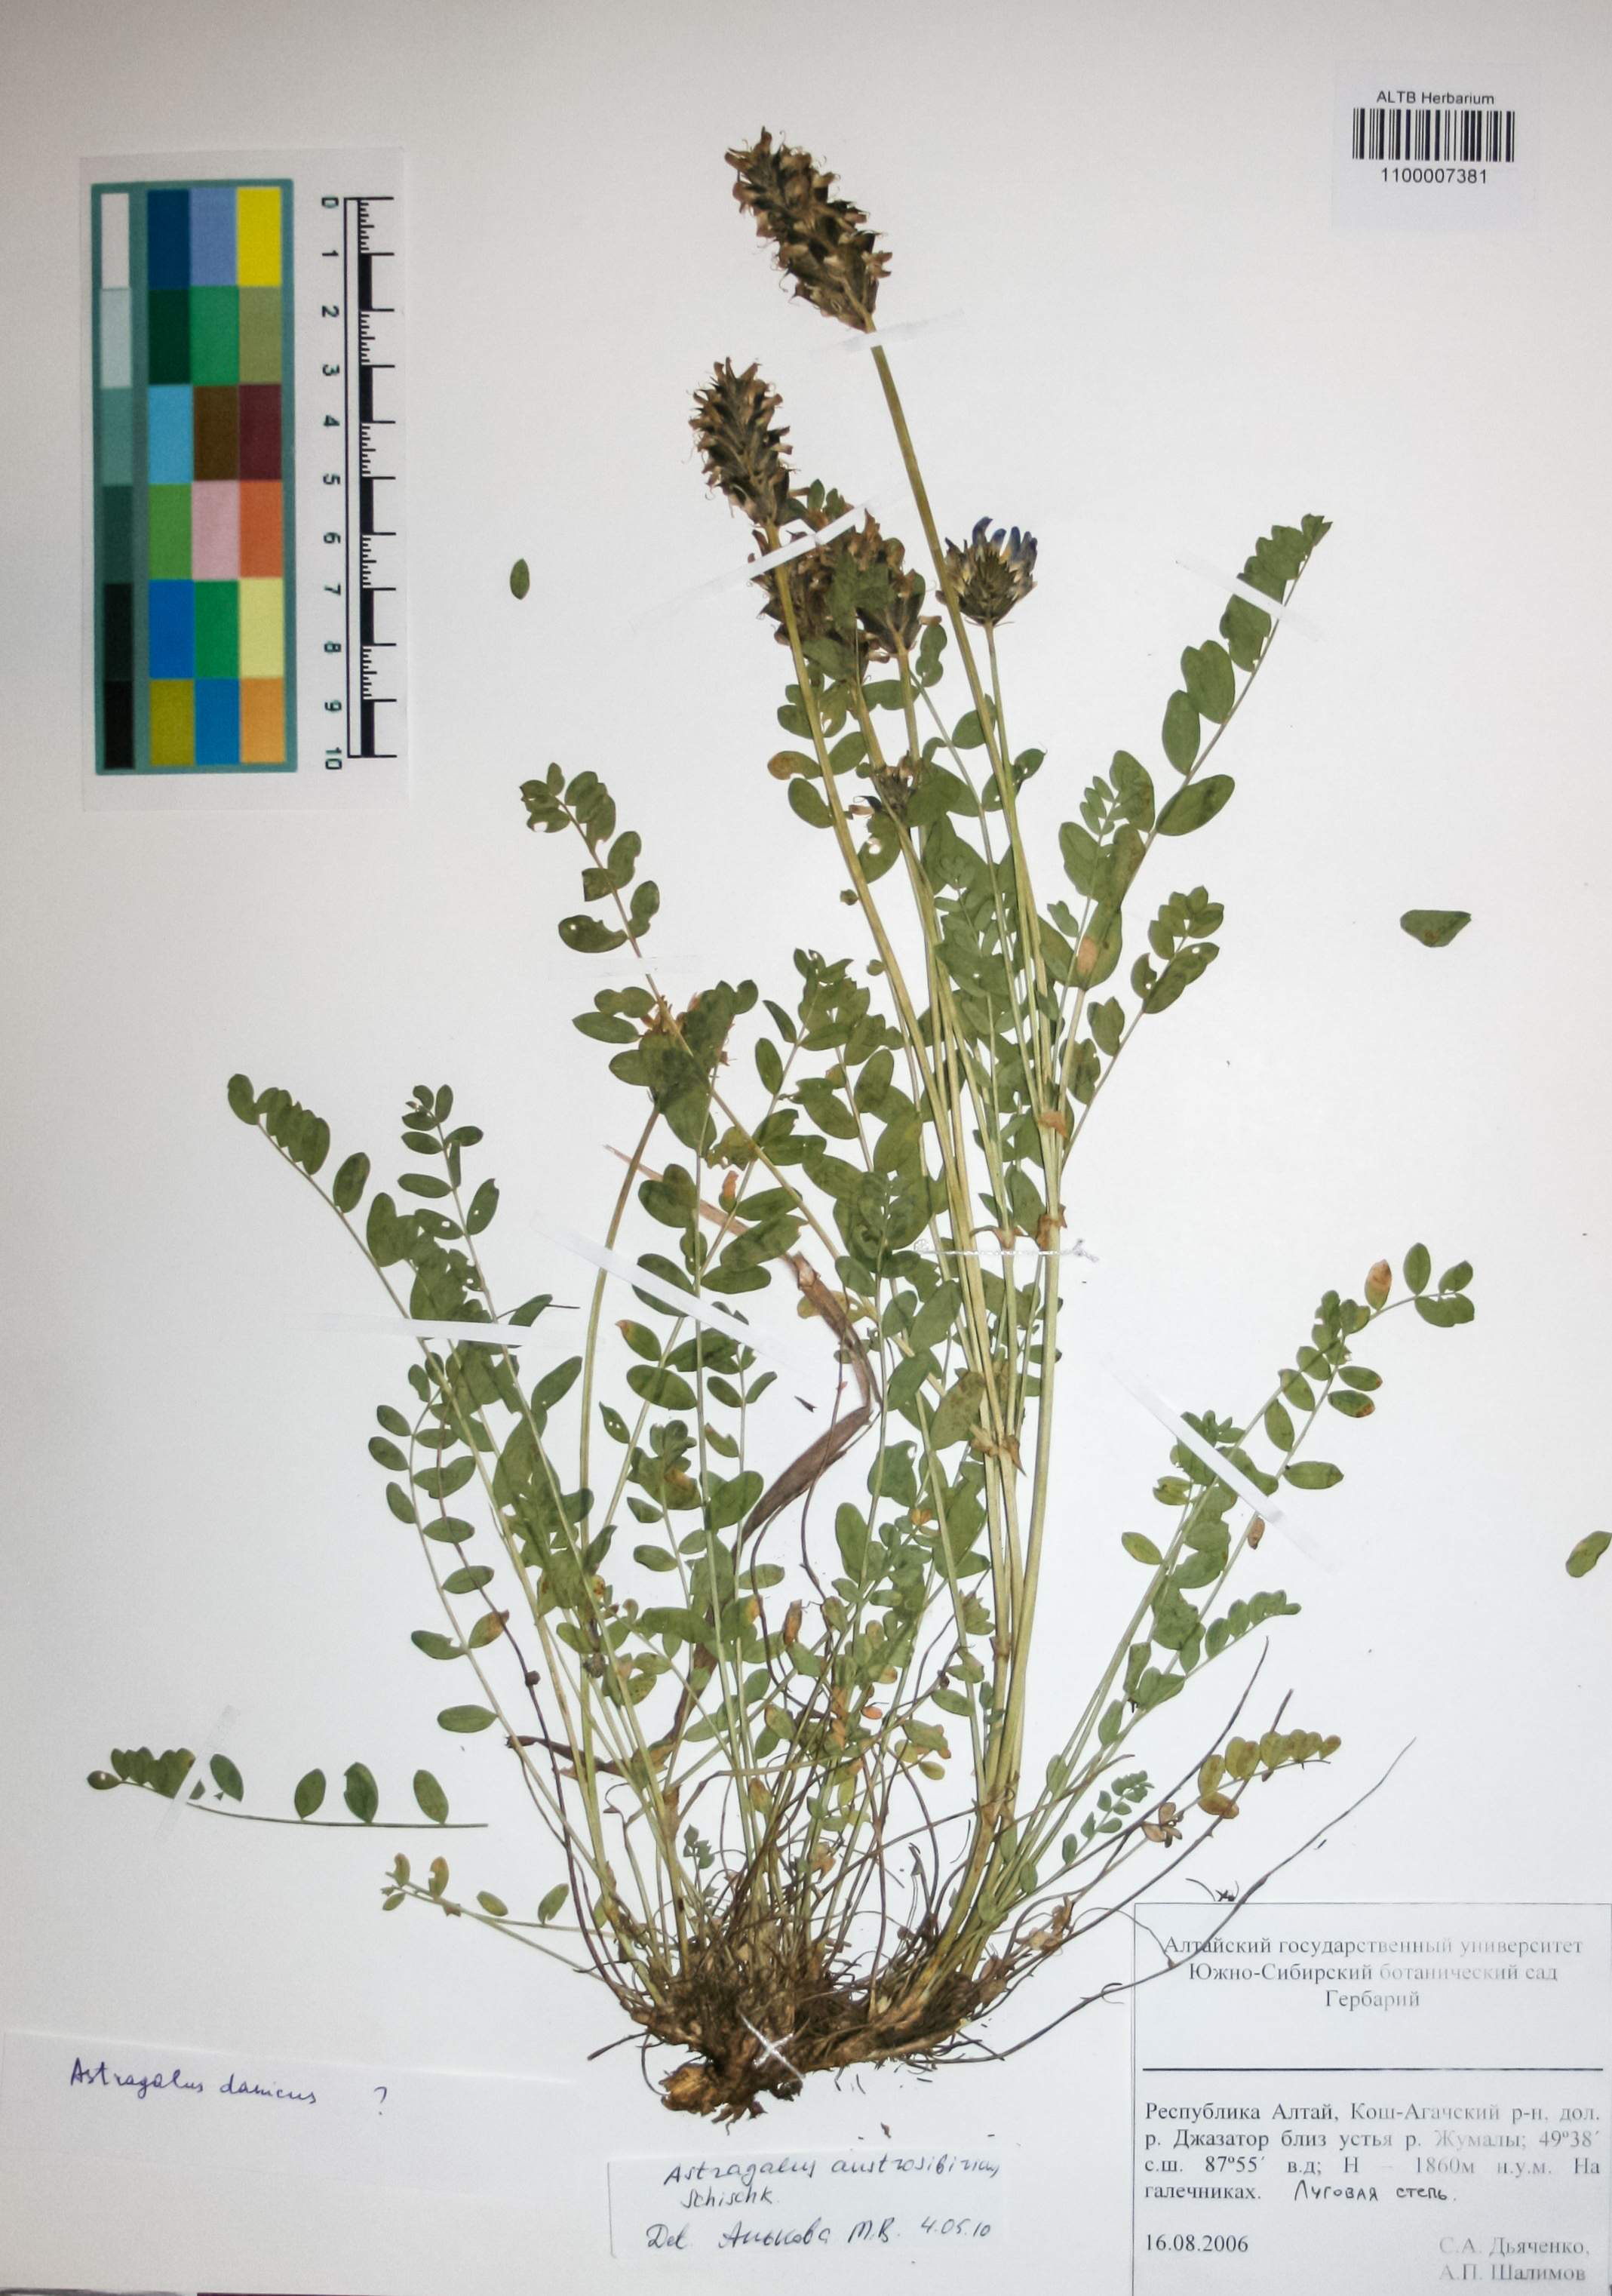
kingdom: Plantae
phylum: Tracheophyta
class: Magnoliopsida
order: Fabales
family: Fabaceae
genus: Astragalus
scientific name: Astragalus laxmannii
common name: Laxmann's milk-vetch
